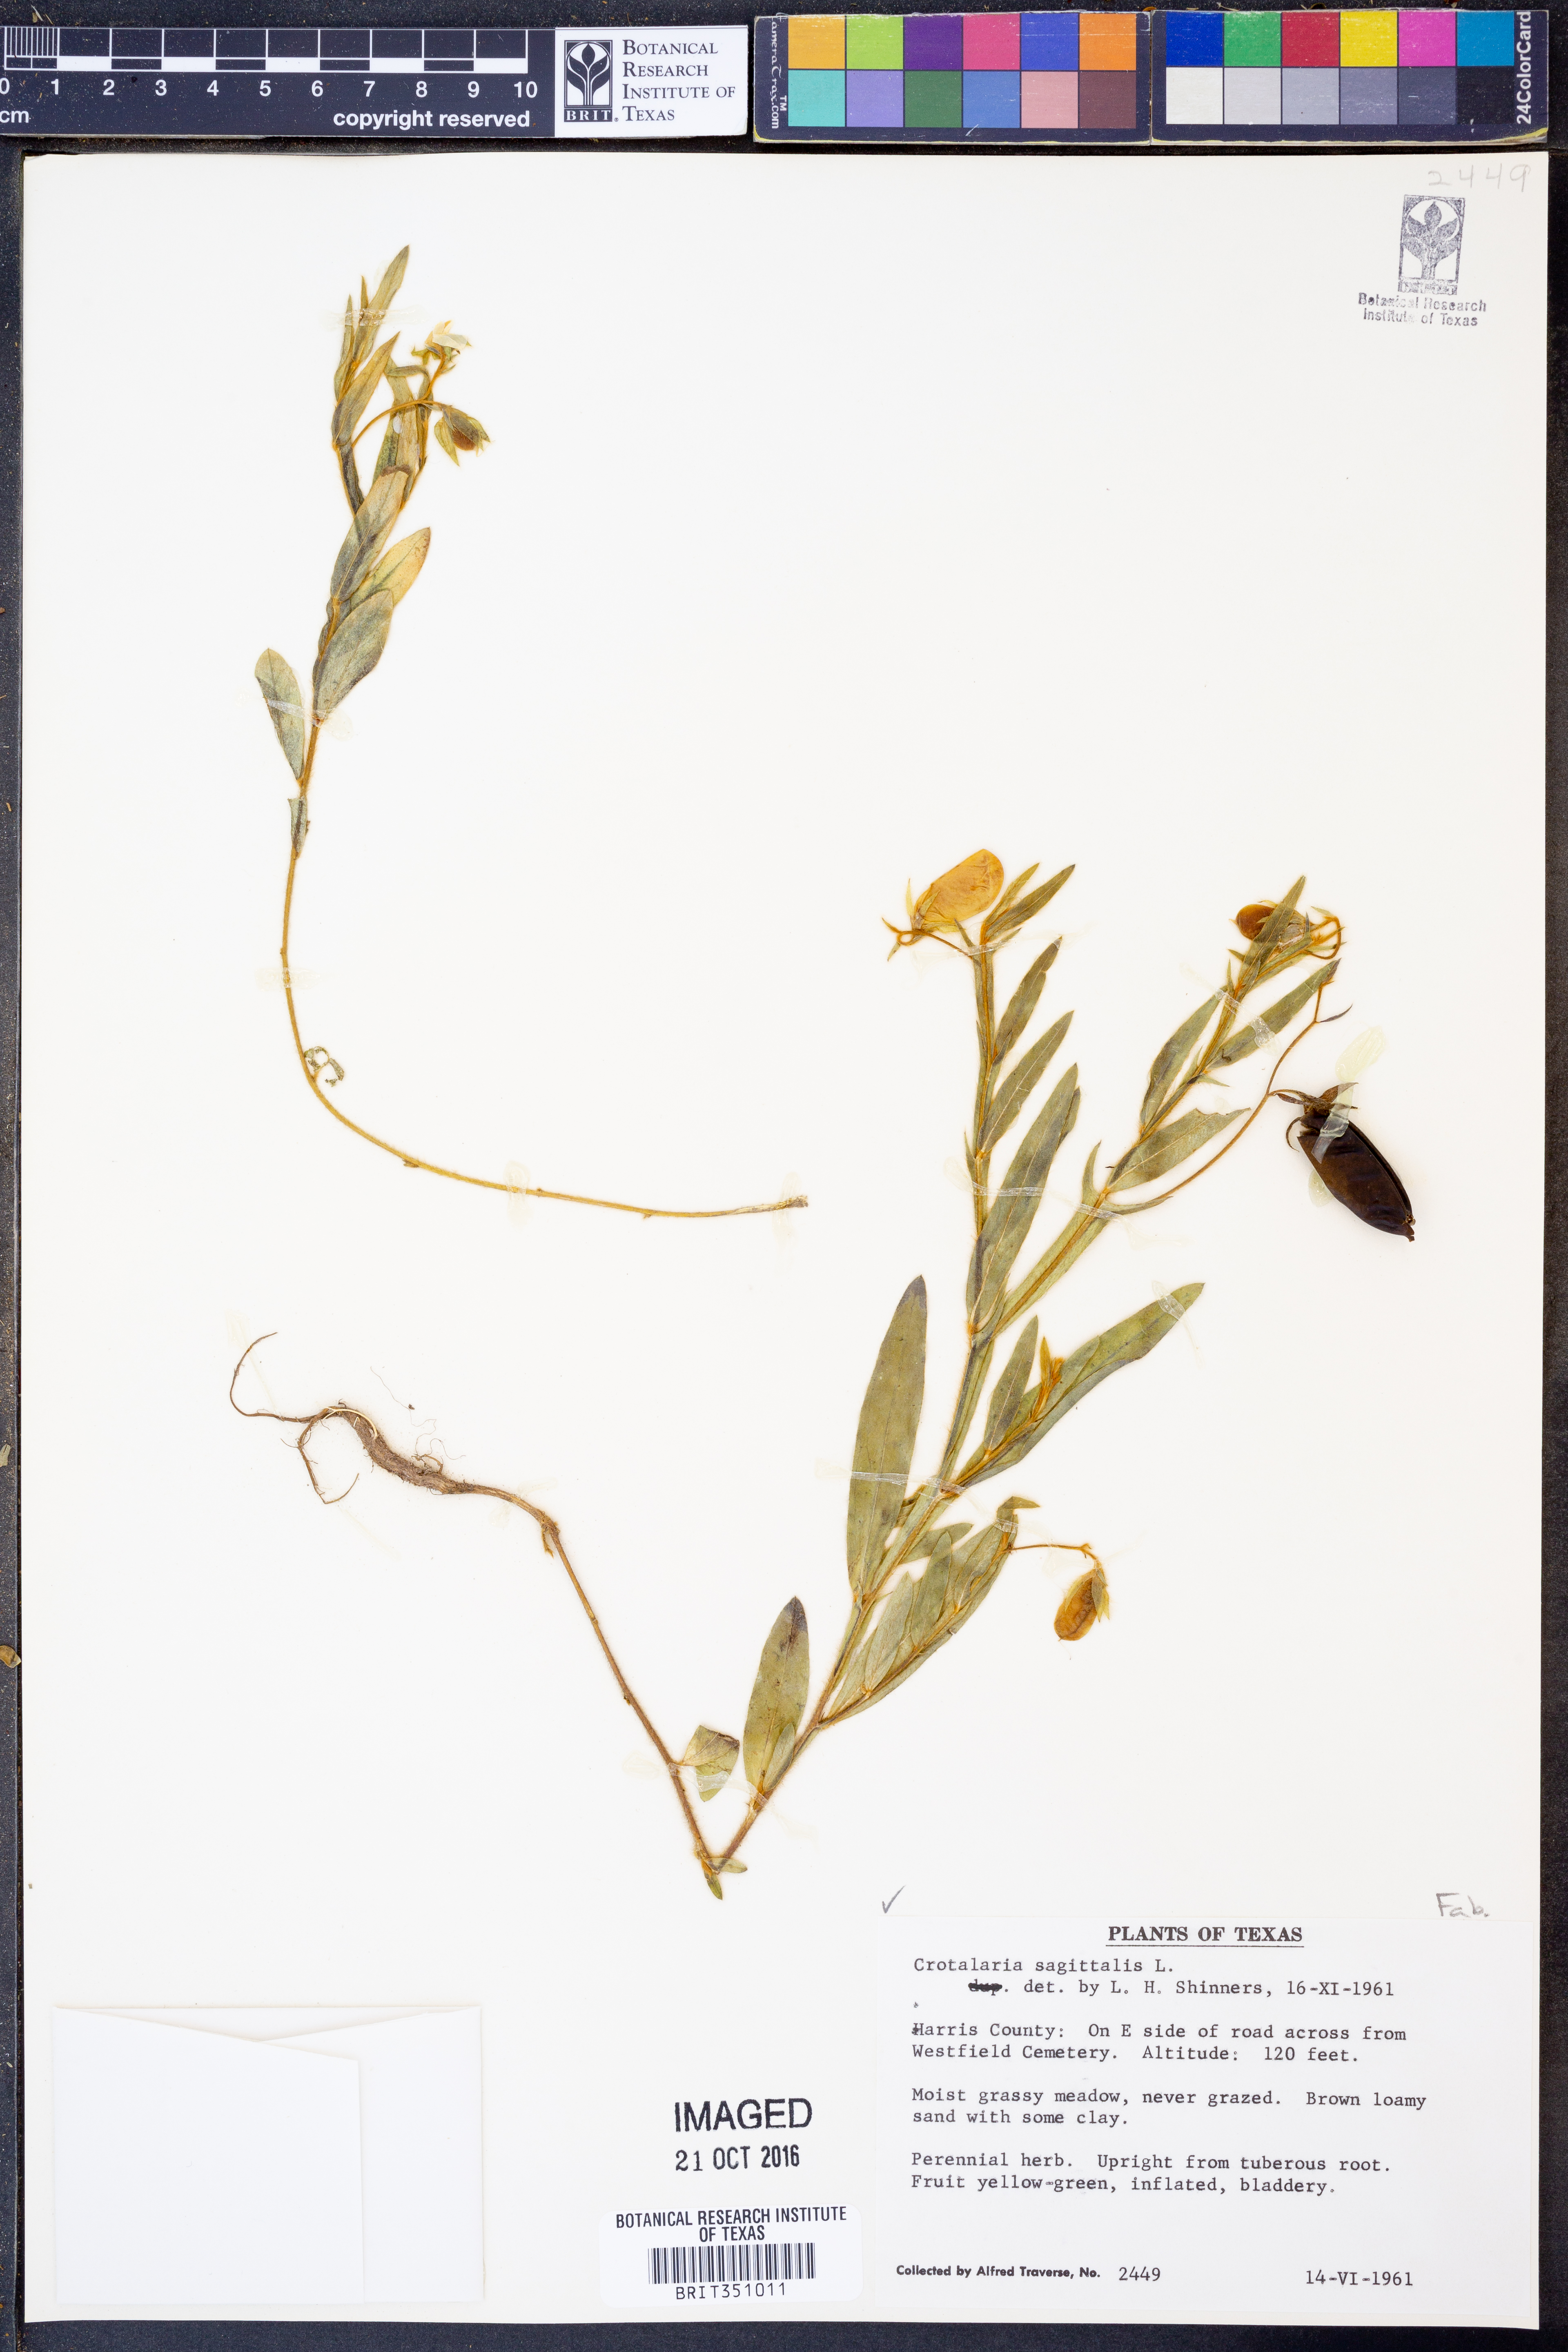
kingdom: Plantae
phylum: Tracheophyta
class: Magnoliopsida
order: Fabales
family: Fabaceae
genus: Crotalaria
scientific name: Crotalaria sagittalis
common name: Arrowhead rattlebox
